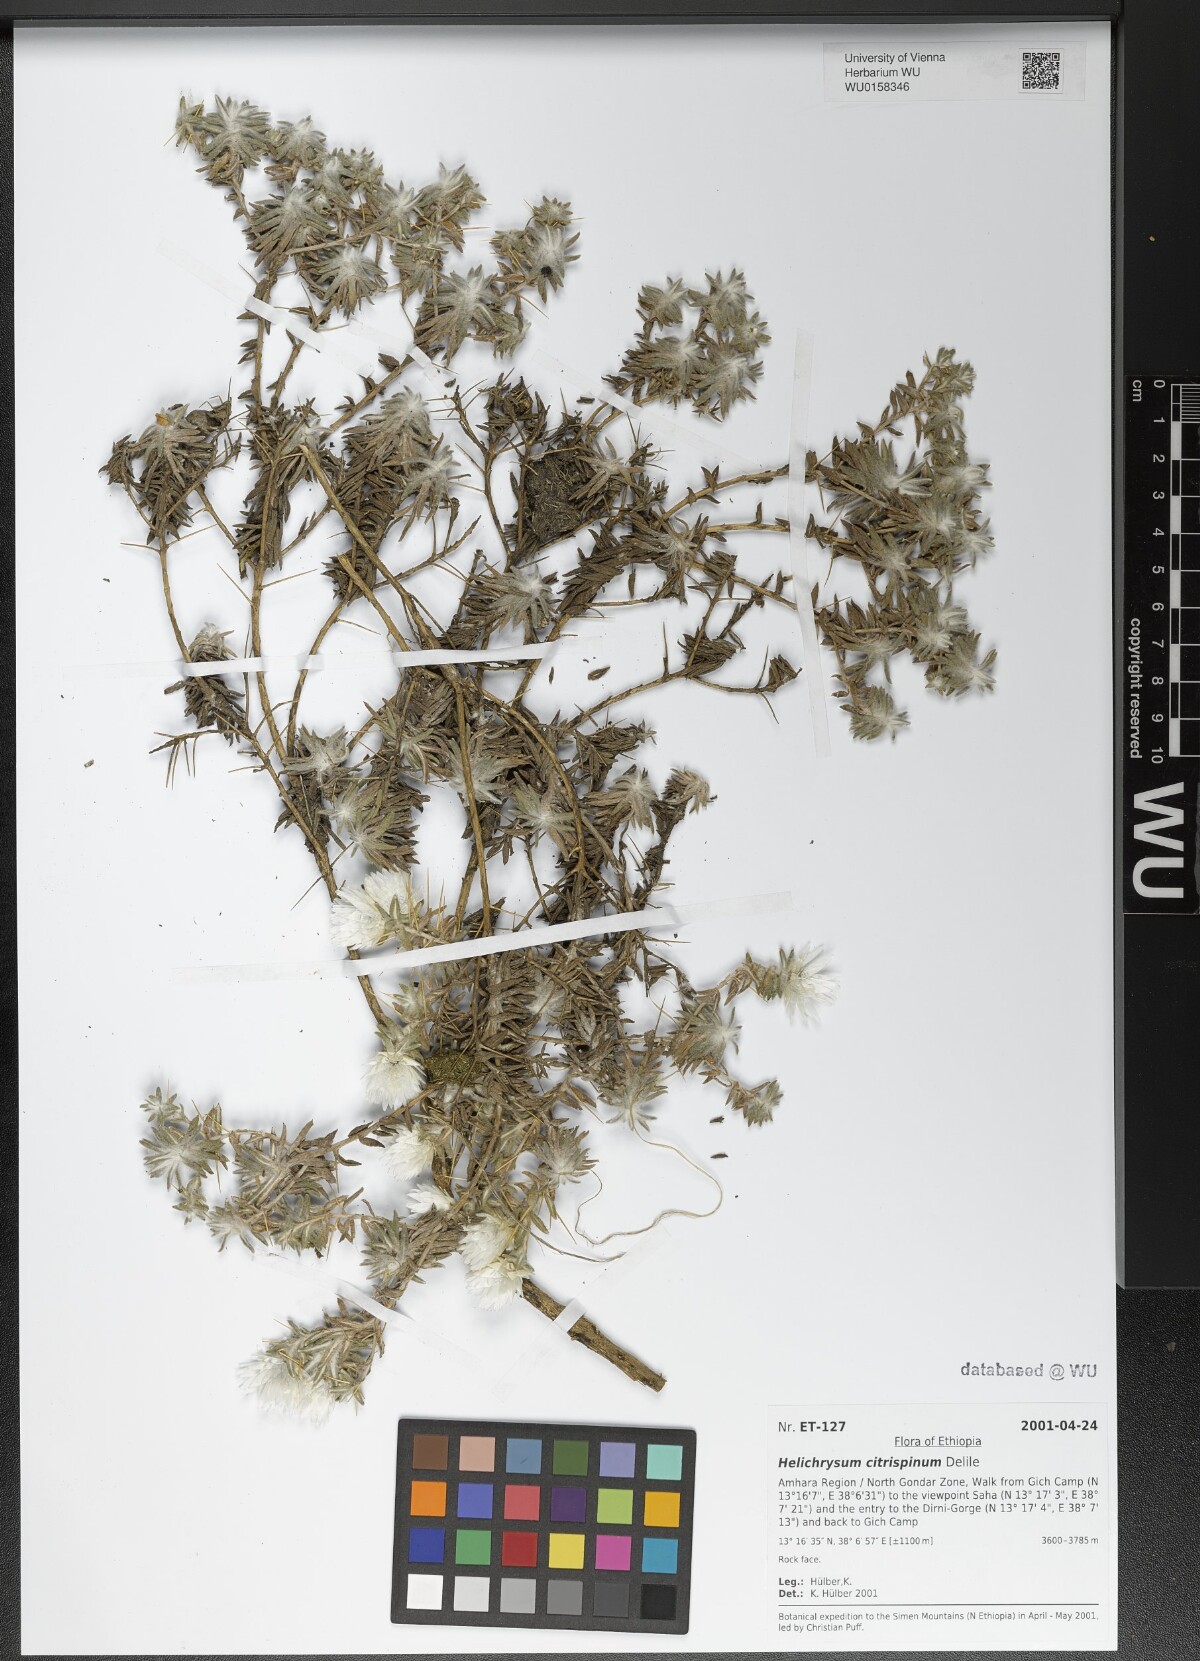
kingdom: Plantae
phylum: Tracheophyta
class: Magnoliopsida
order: Asterales
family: Asteraceae
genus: Helichrysum
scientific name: Helichrysum citrispinum
